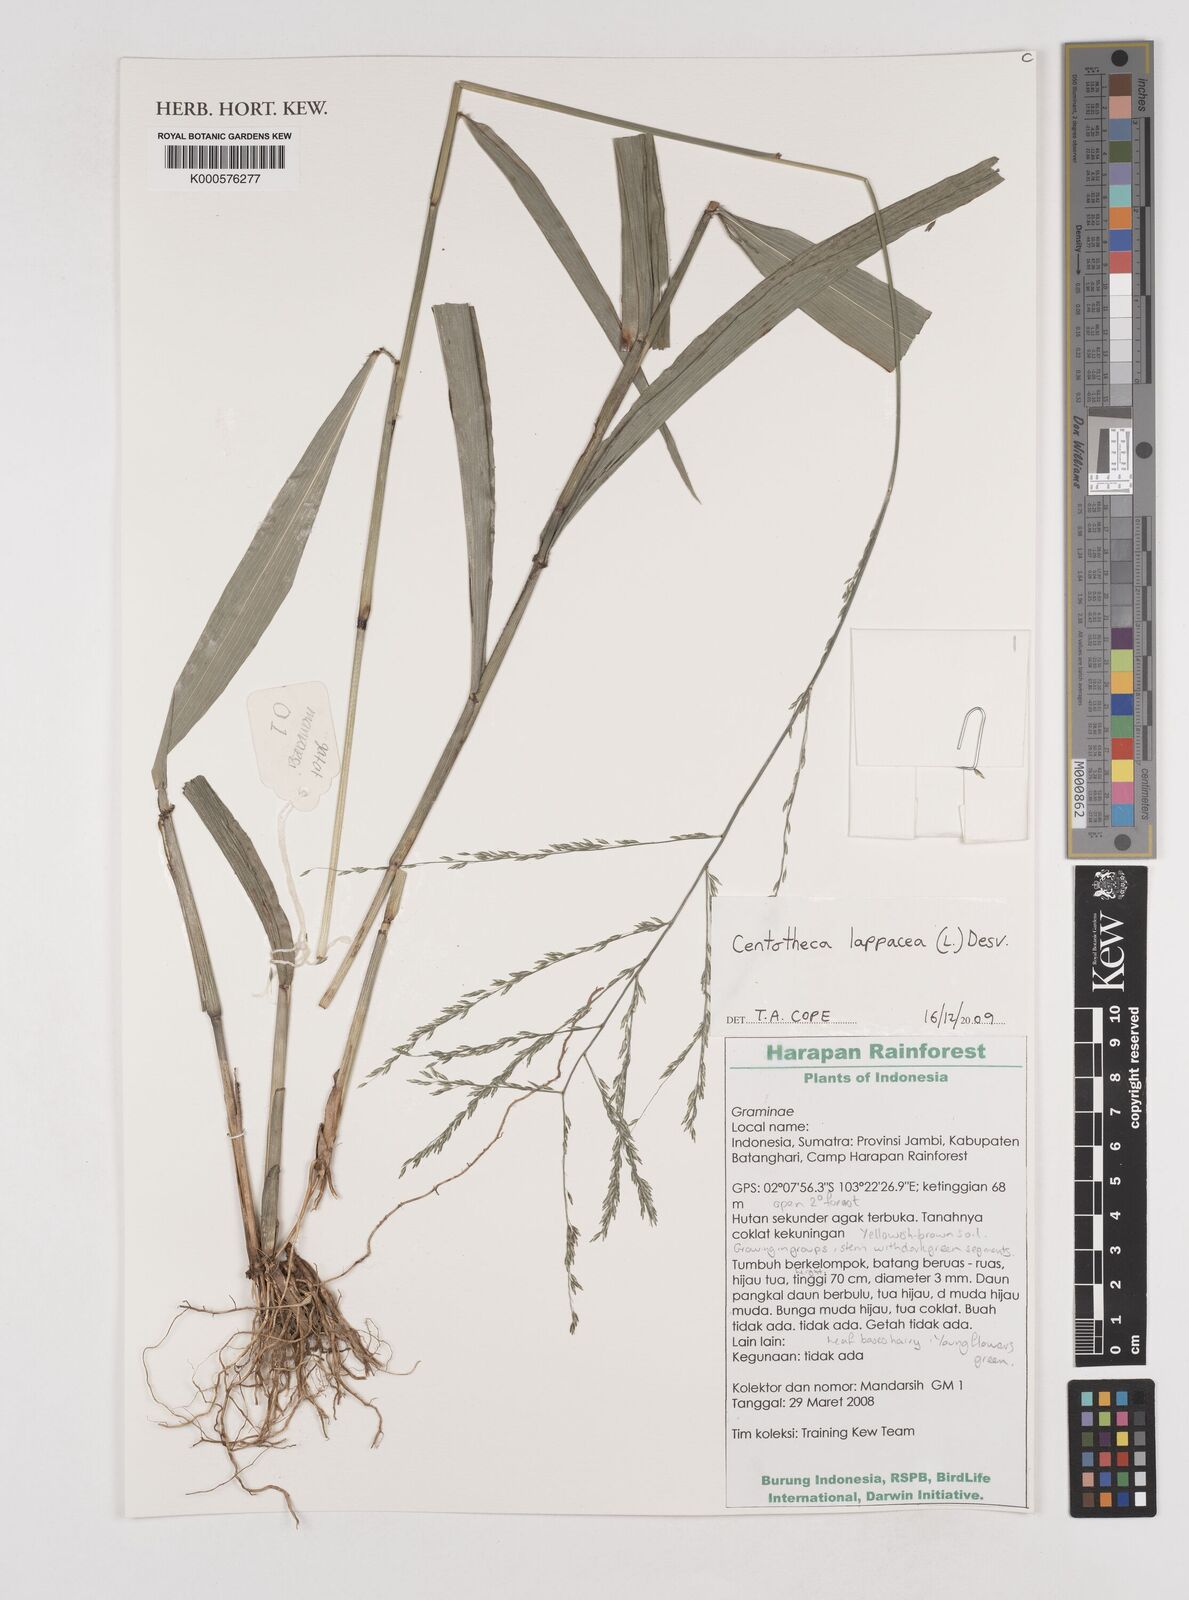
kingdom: Plantae
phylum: Tracheophyta
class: Liliopsida
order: Poales
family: Poaceae
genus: Centotheca
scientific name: Centotheca lappacea
